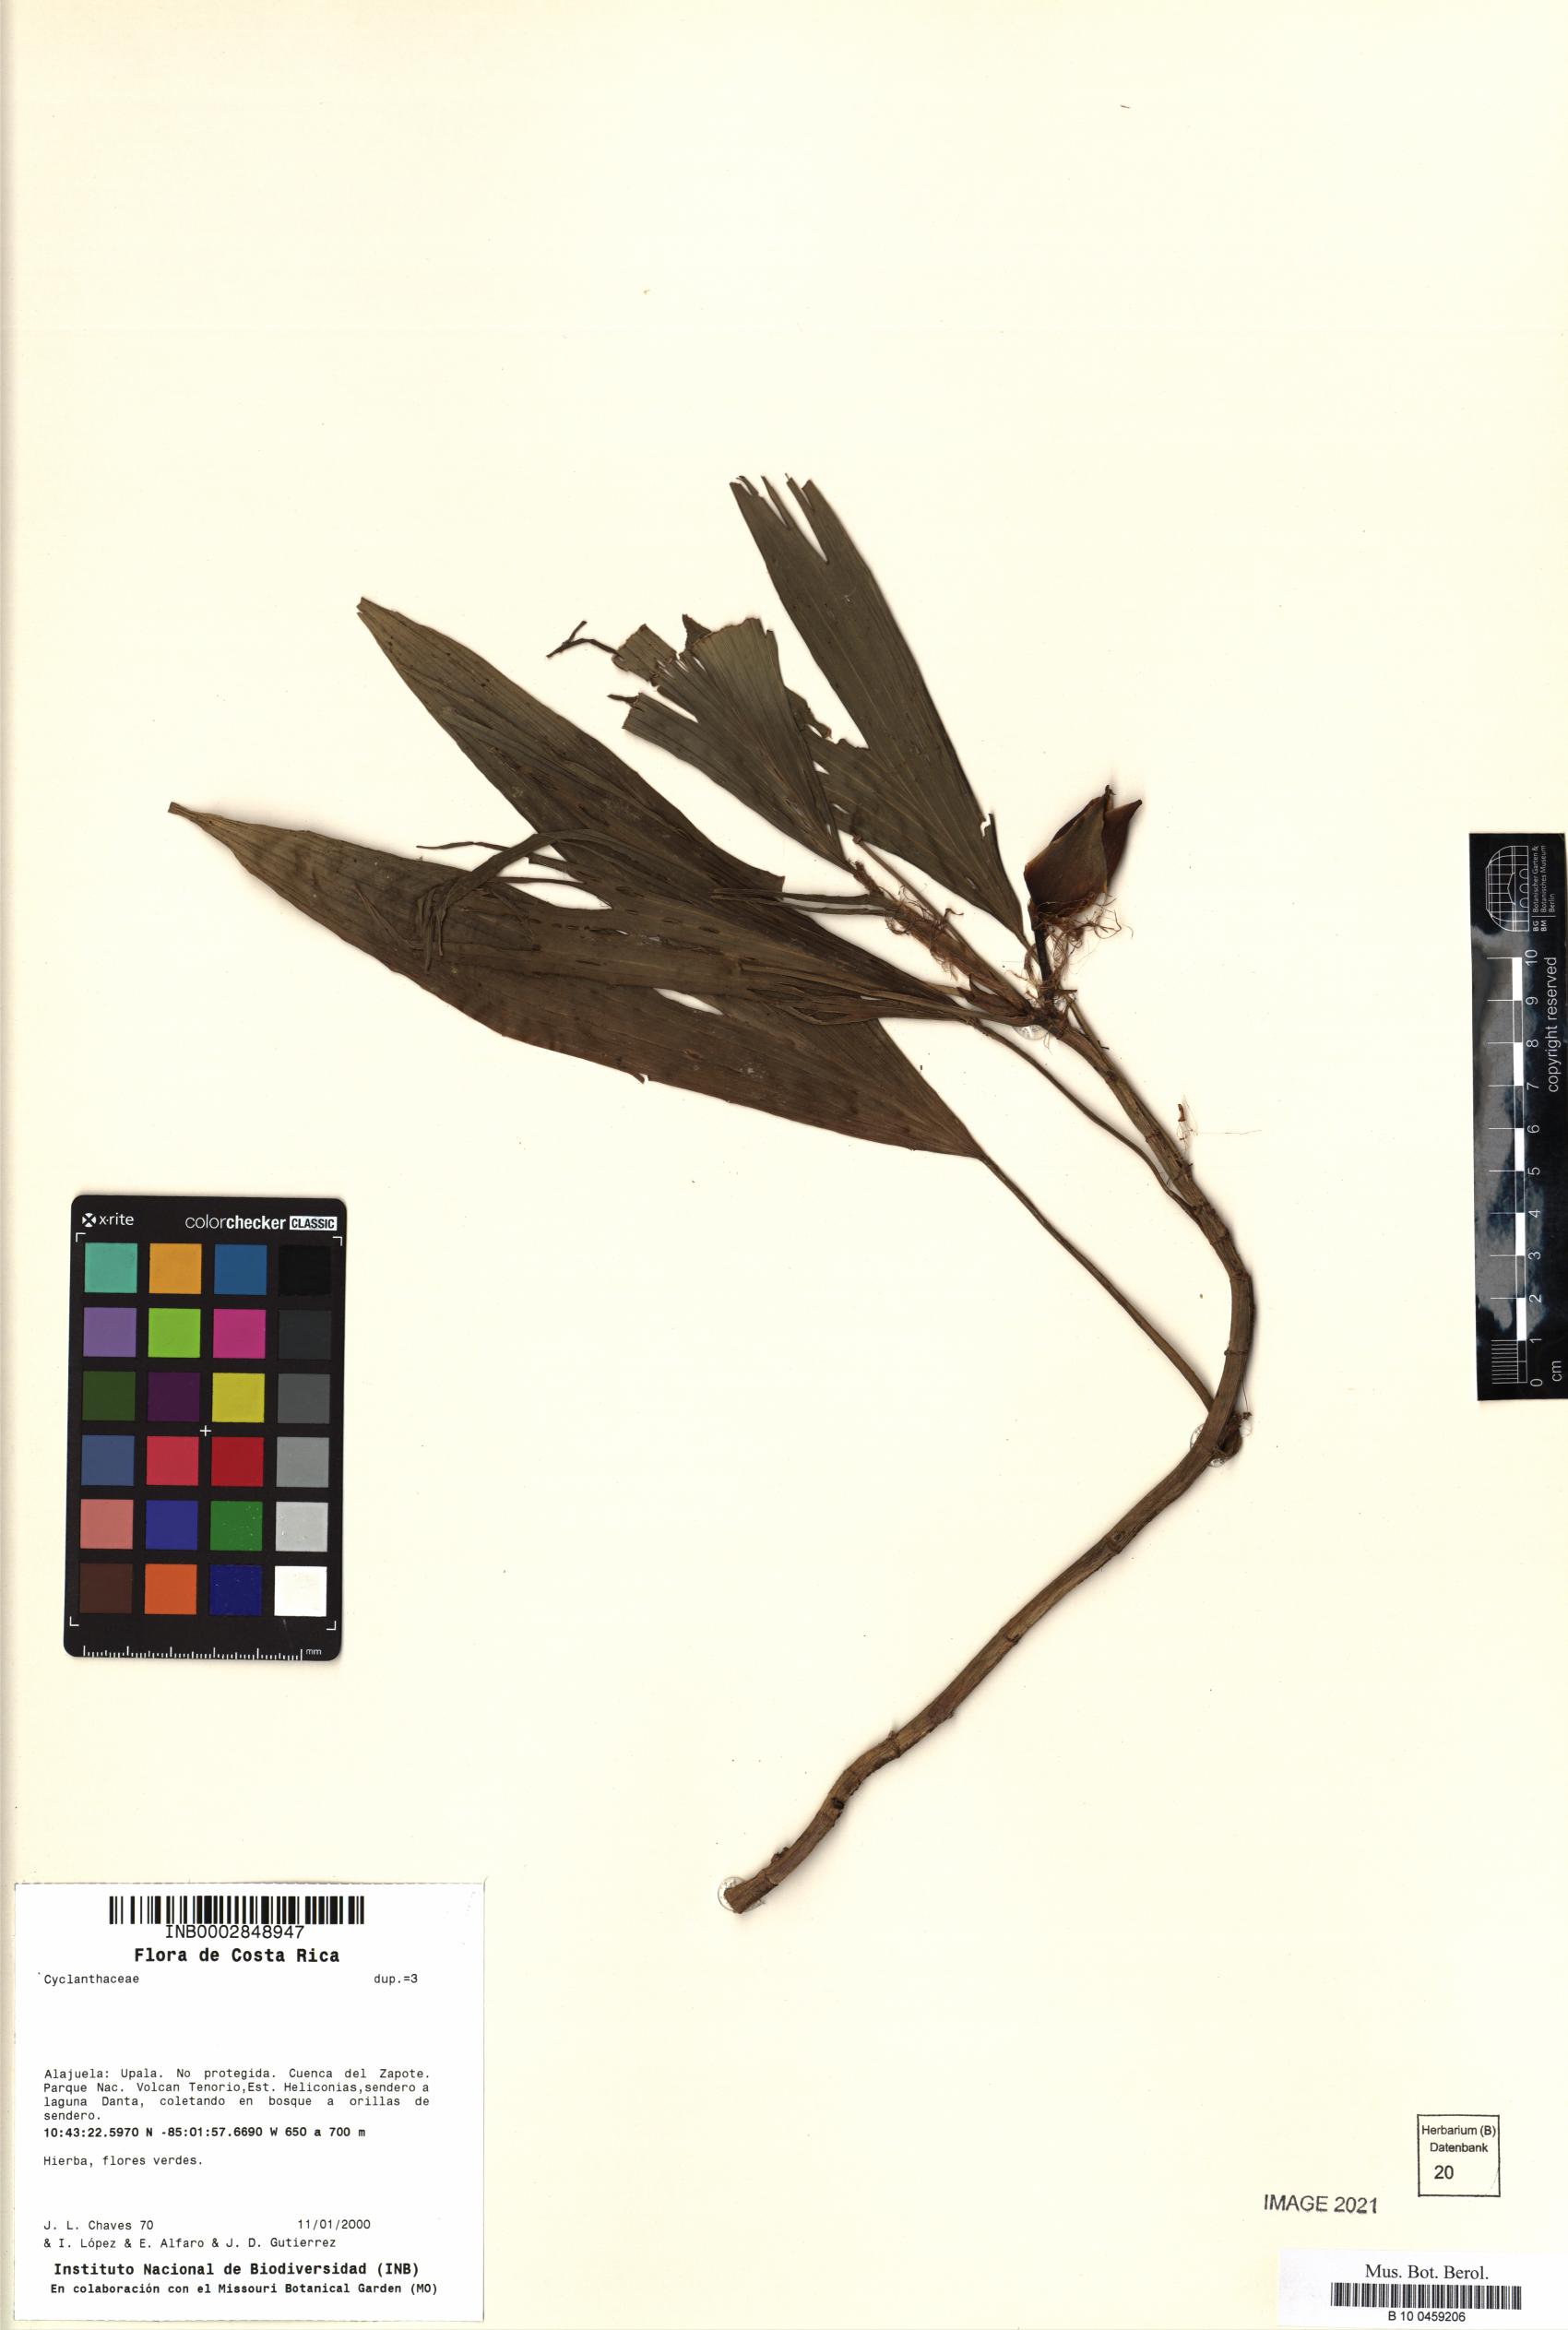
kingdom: Plantae
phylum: Tracheophyta
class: Liliopsida
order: Pandanales
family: Cyclanthaceae
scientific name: Cyclanthaceae
